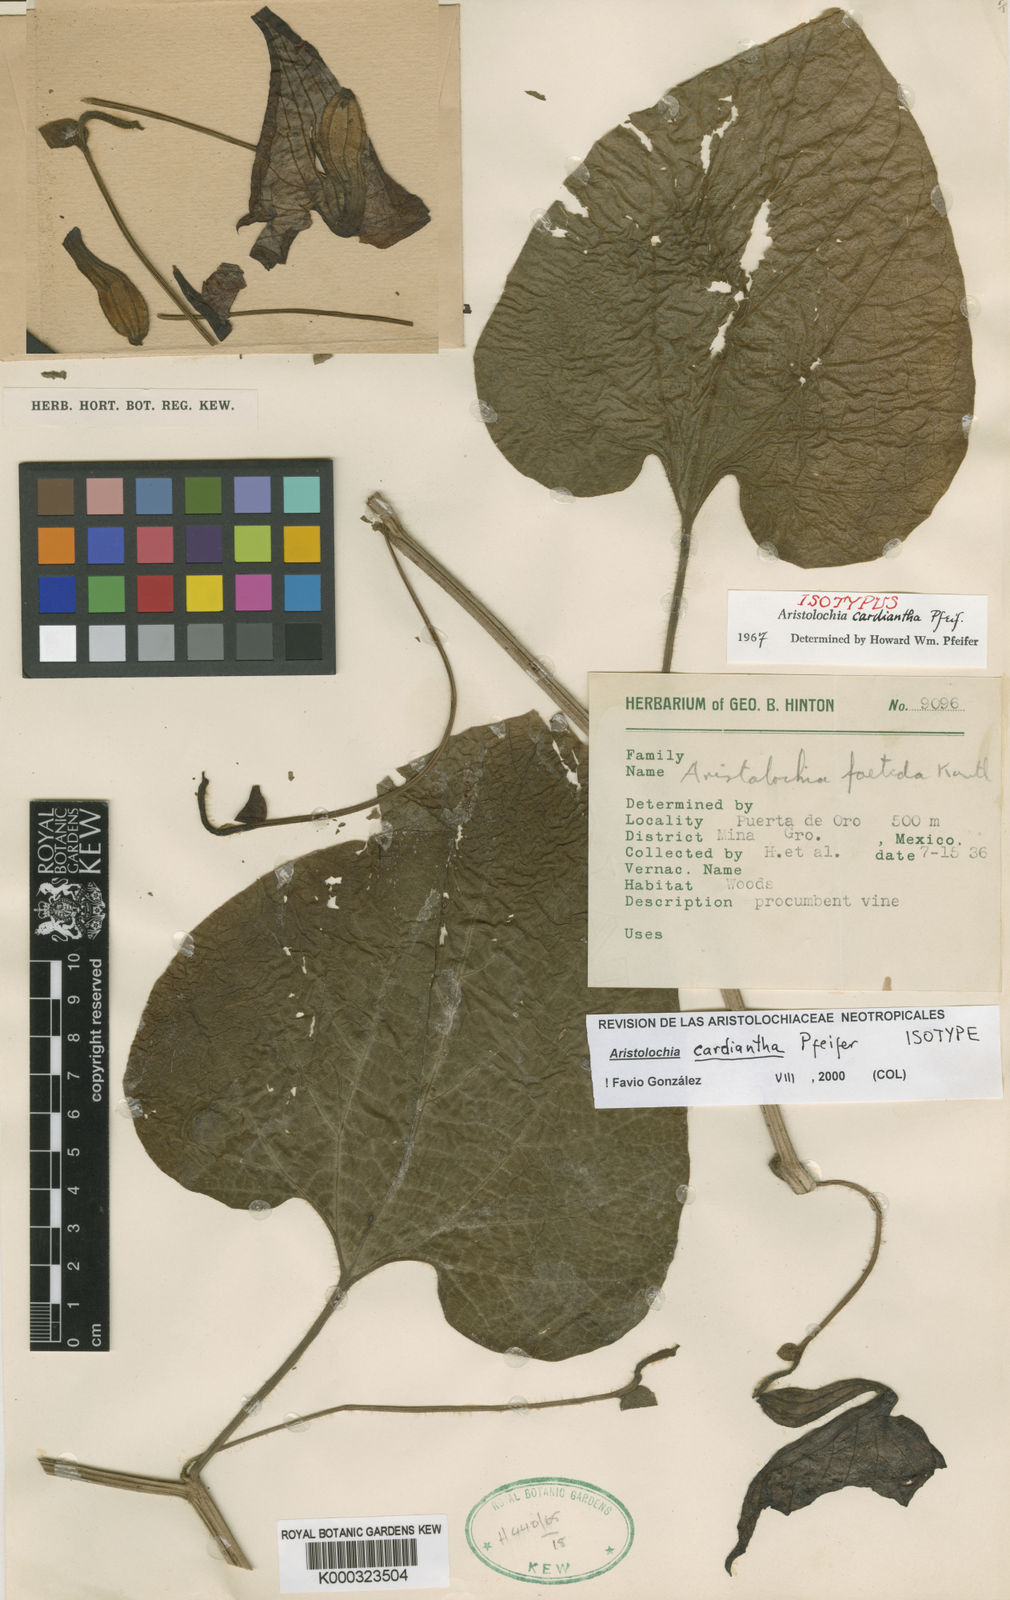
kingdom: Plantae
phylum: Tracheophyta
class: Magnoliopsida
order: Piperales
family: Aristolochiaceae
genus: Aristolochia
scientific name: Aristolochia cardiantha
